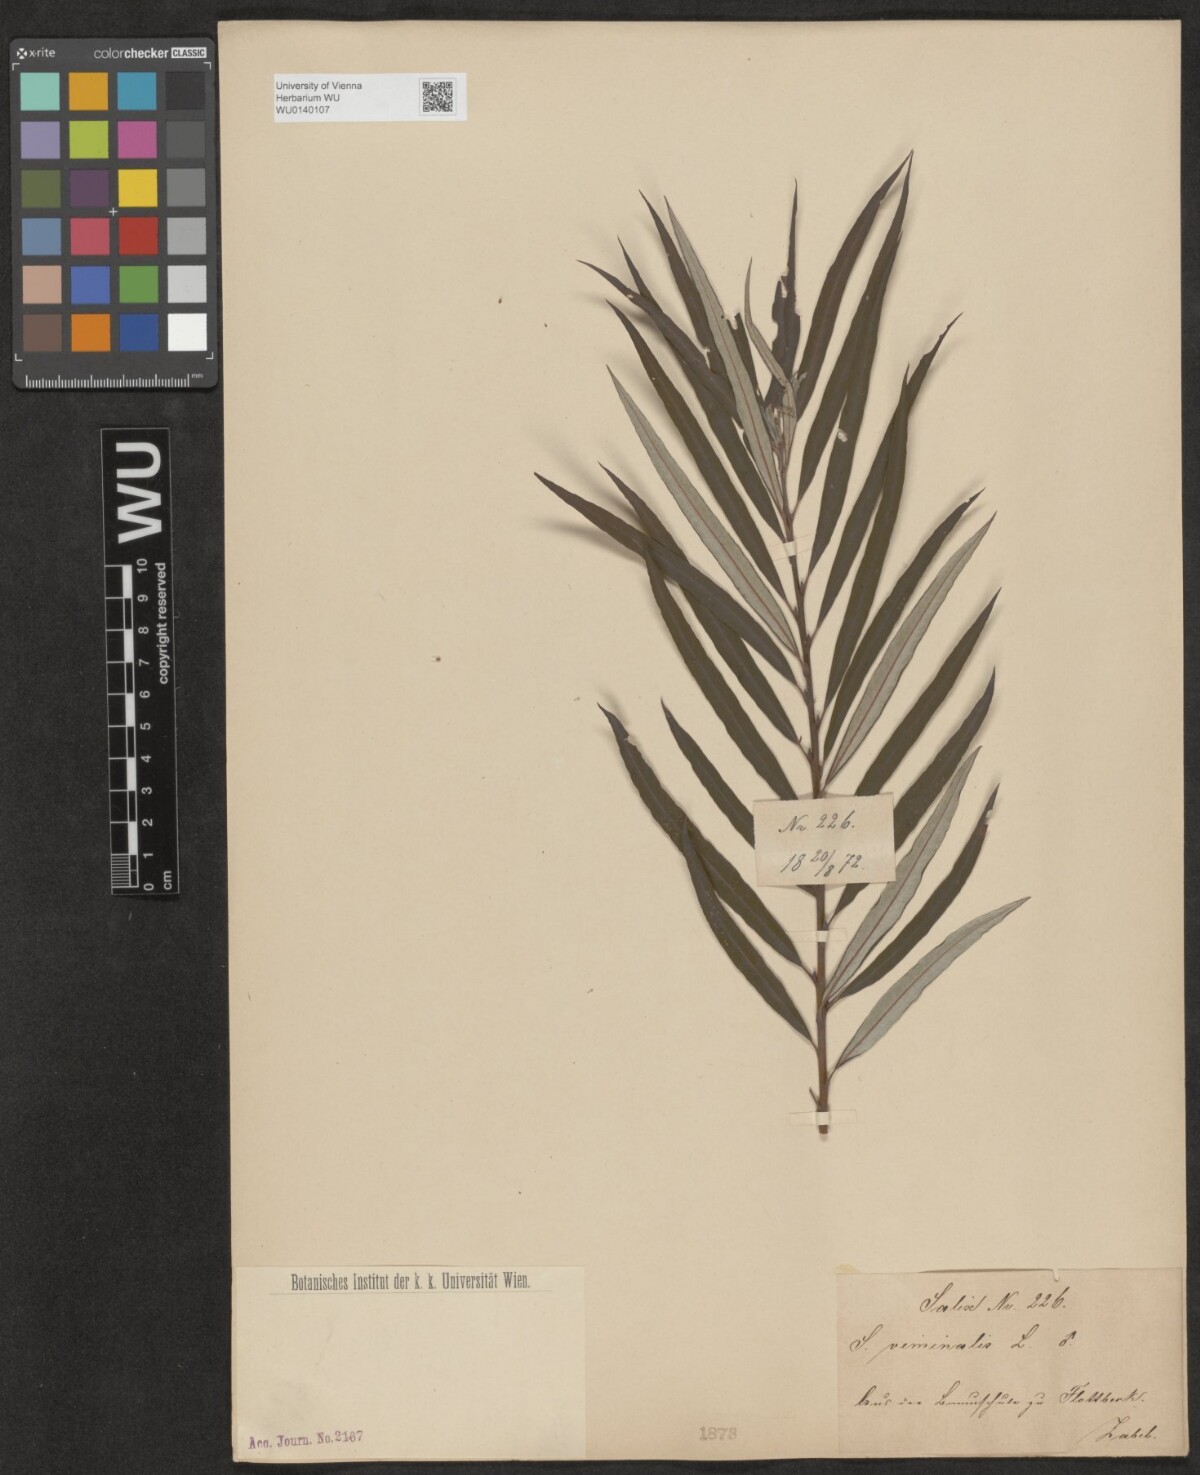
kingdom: Plantae
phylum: Tracheophyta
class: Magnoliopsida
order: Malpighiales
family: Salicaceae
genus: Salix
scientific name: Salix viminalis
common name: Osier
